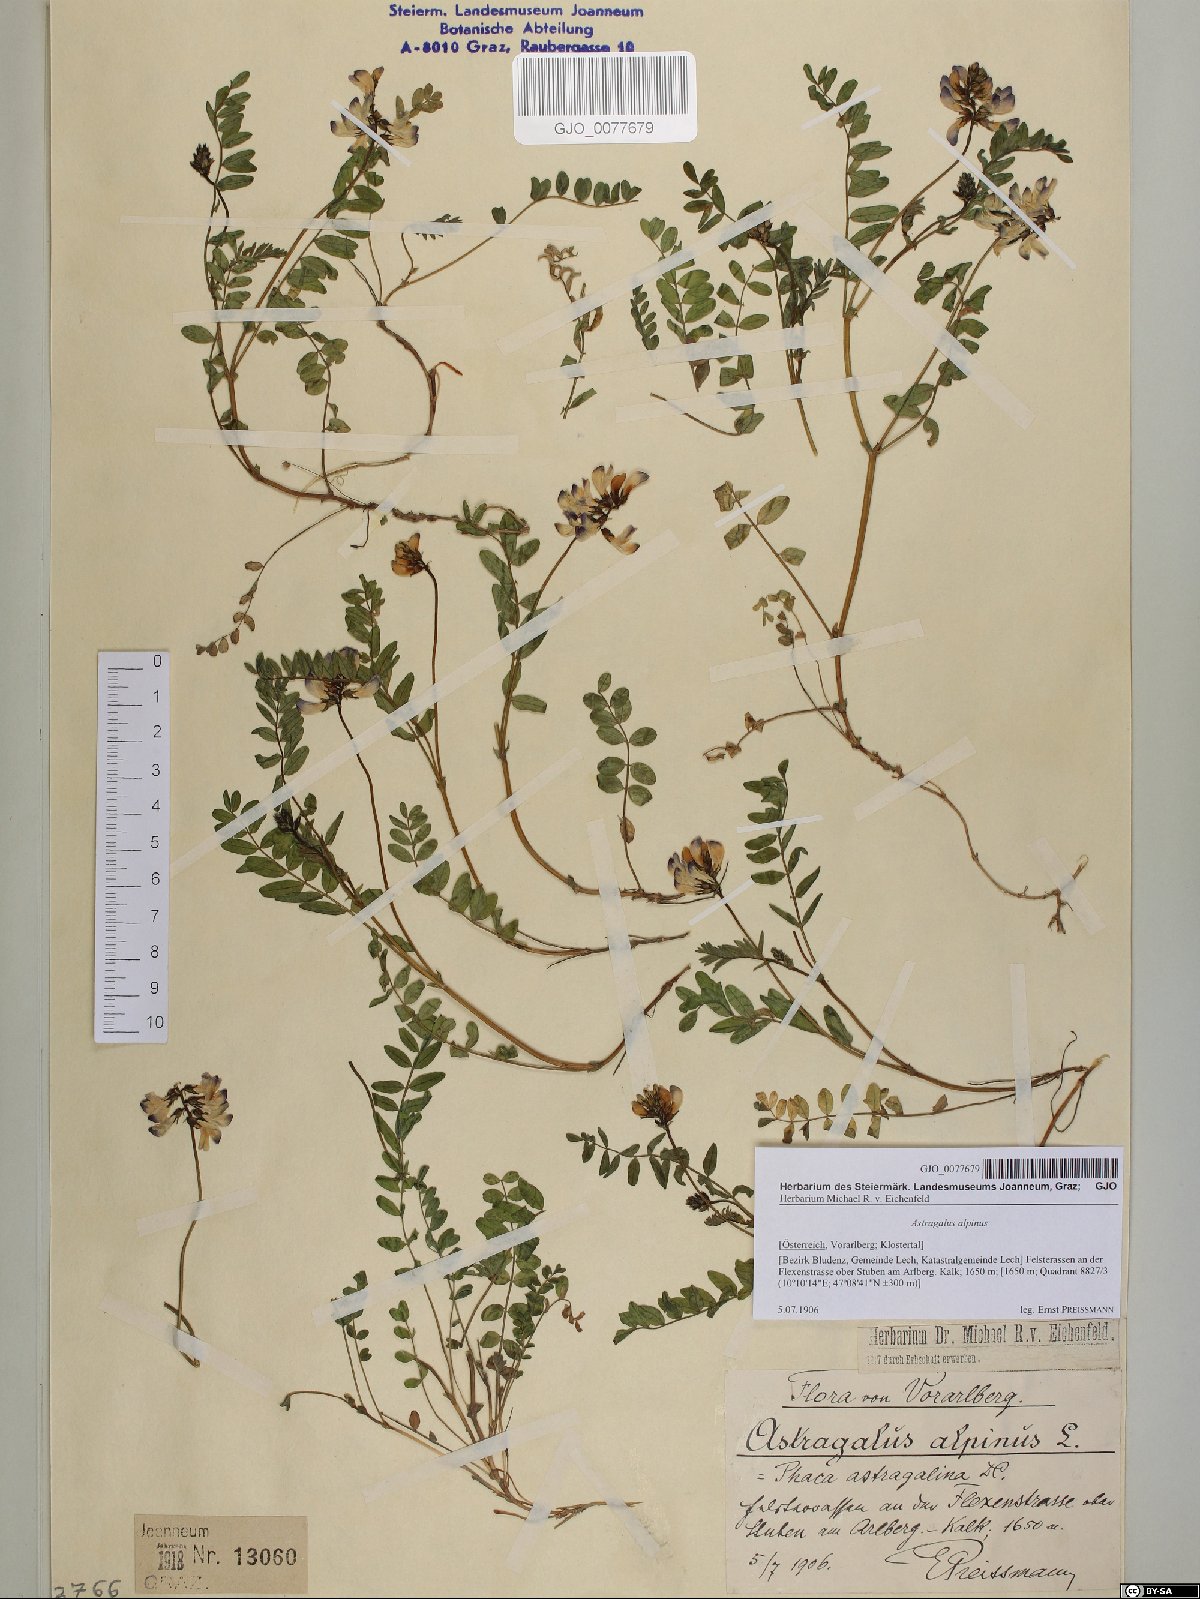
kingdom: Plantae
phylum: Tracheophyta
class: Magnoliopsida
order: Fabales
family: Fabaceae
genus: Astragalus
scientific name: Astragalus alpinus
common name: Alpine milk-vetch
